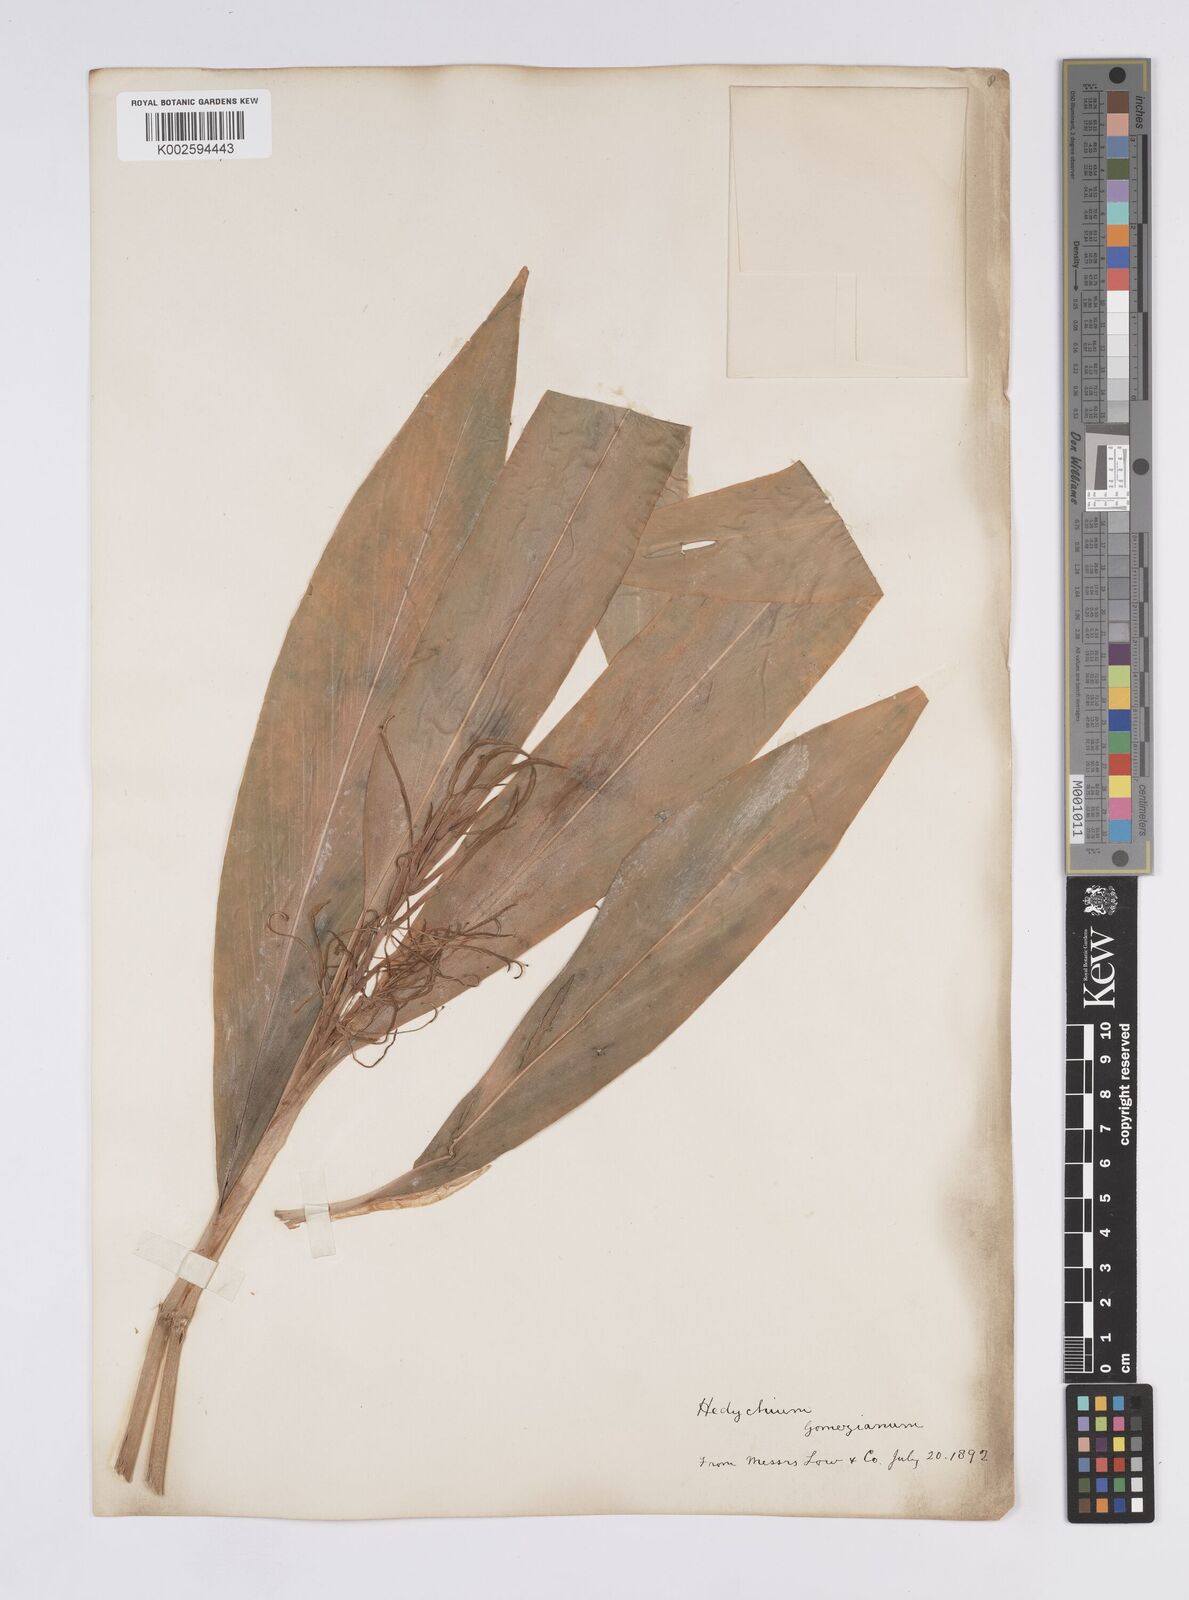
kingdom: Plantae
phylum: Tracheophyta
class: Liliopsida
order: Zingiberales
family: Zingiberaceae
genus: Hedychium
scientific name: Hedychium gomezianum
